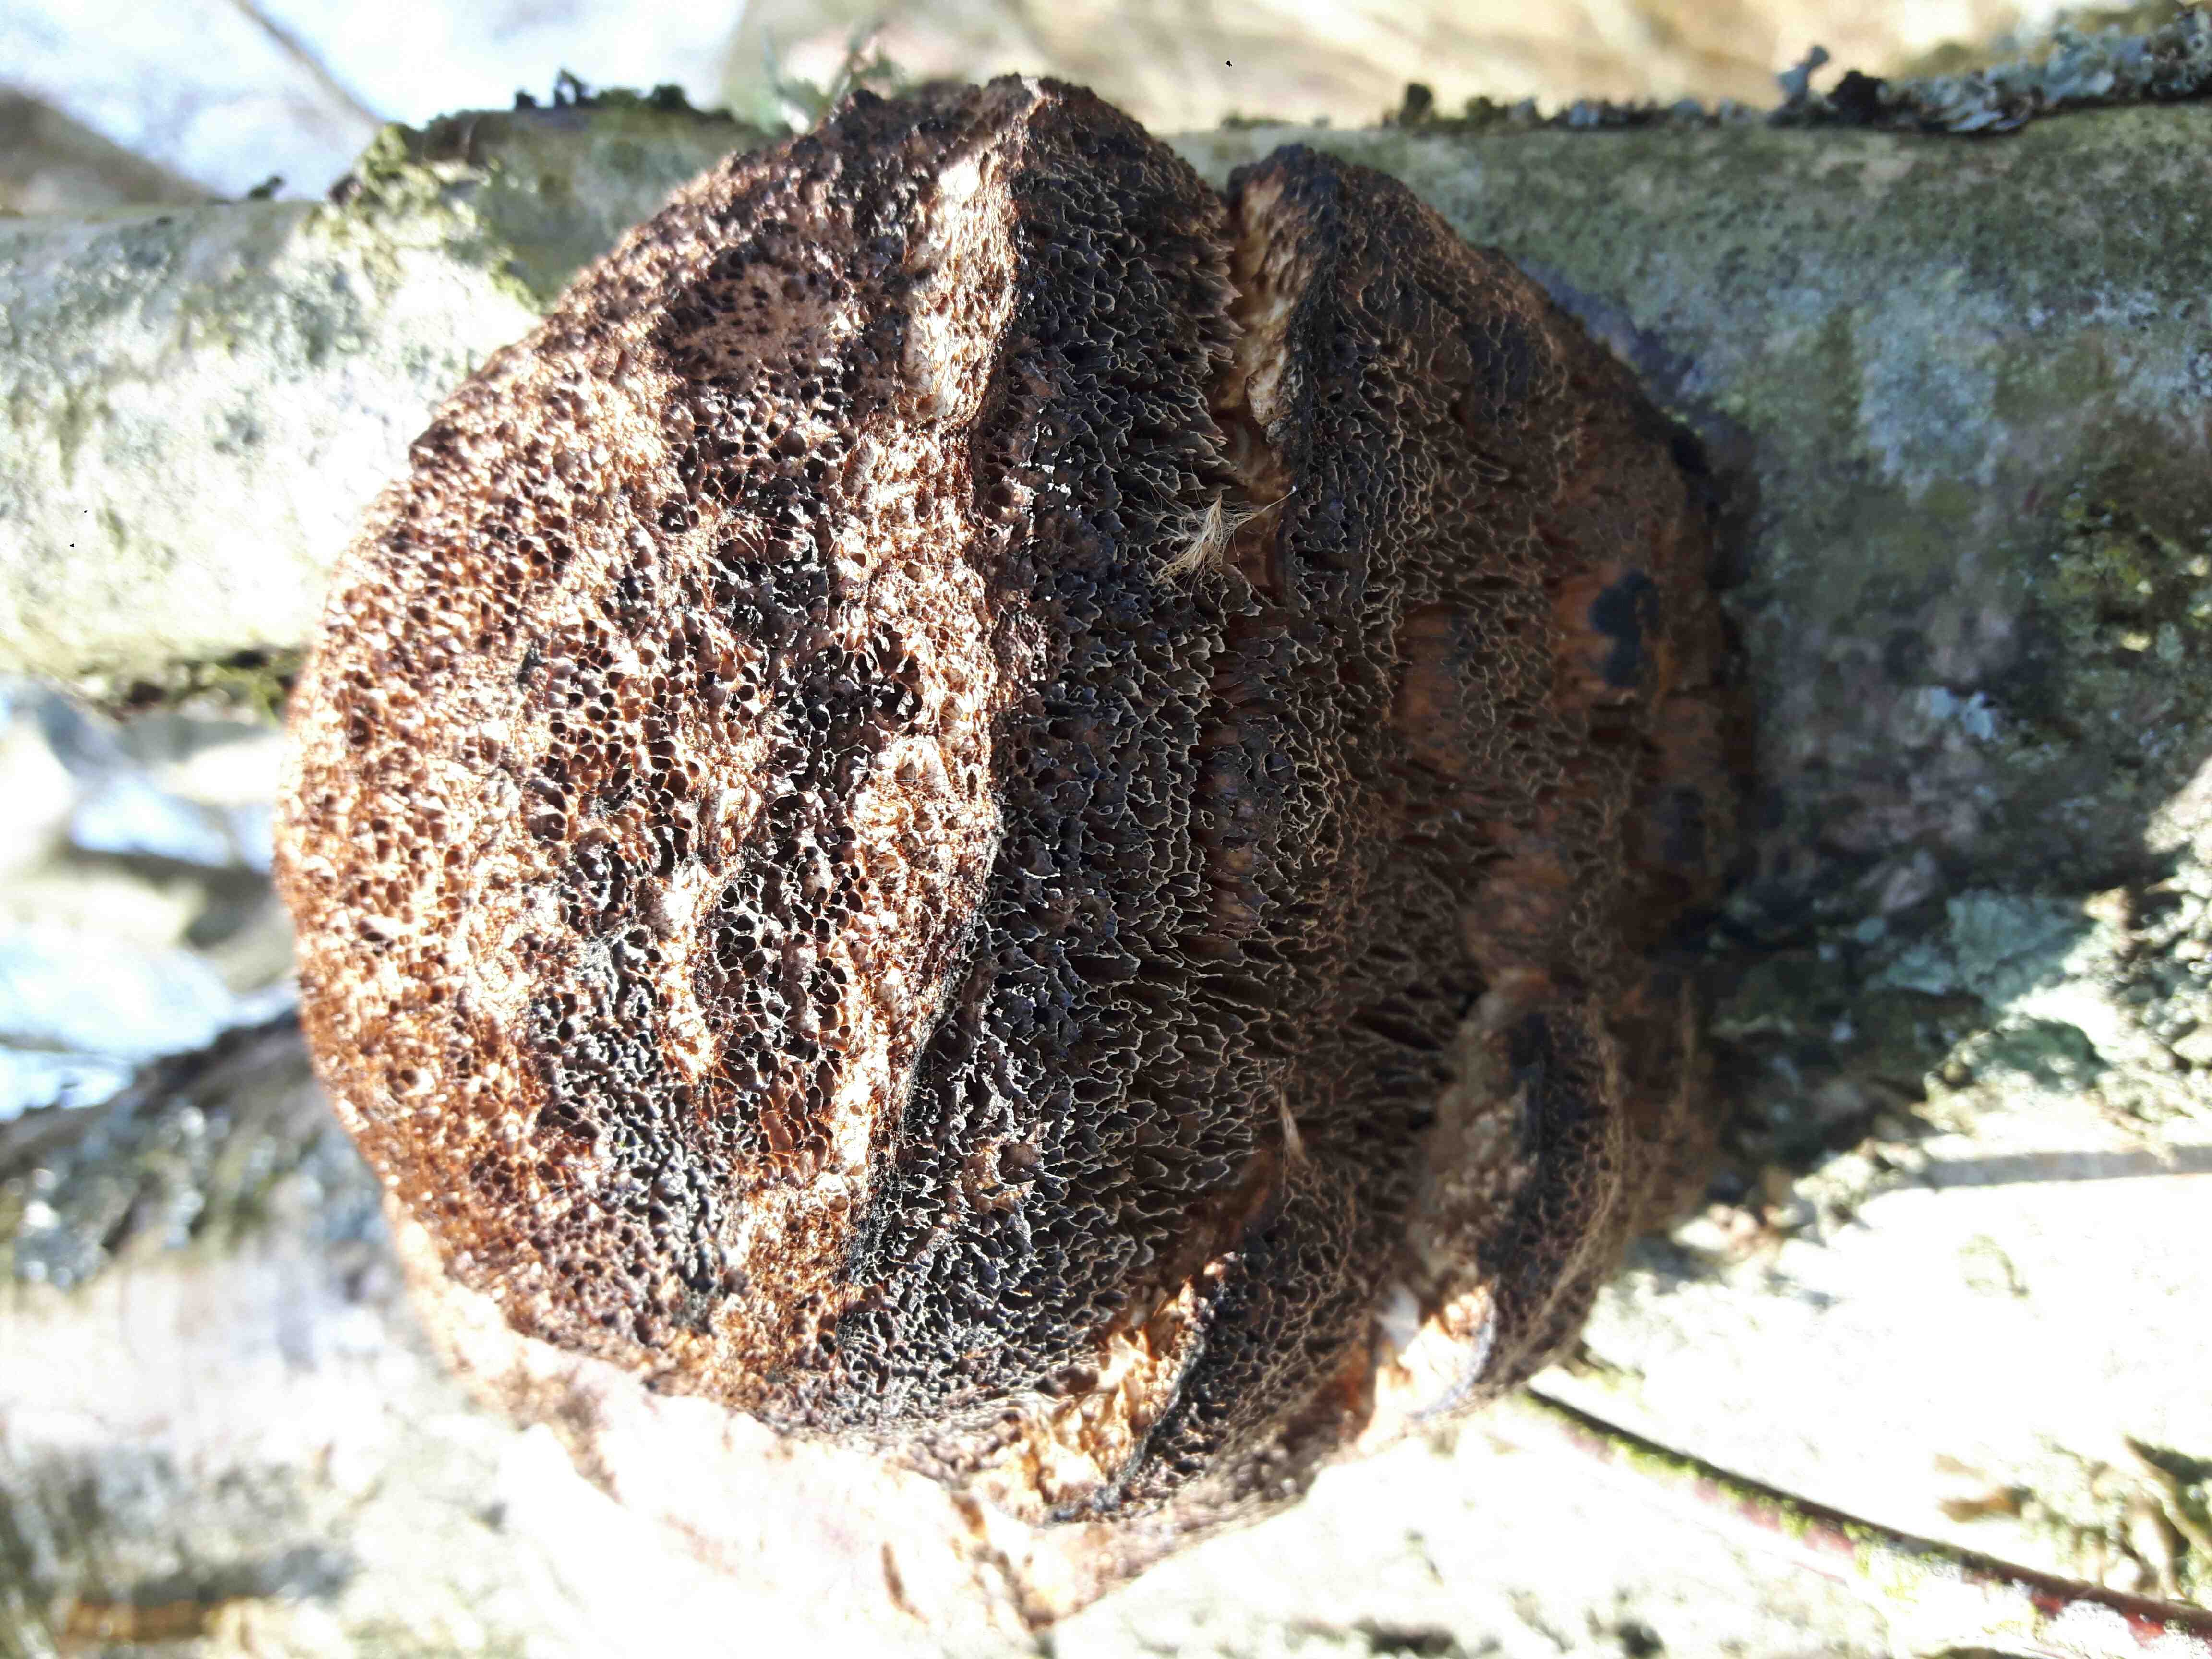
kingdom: Fungi
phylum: Basidiomycota
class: Agaricomycetes
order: Polyporales
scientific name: Polyporales
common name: poresvampordenen
